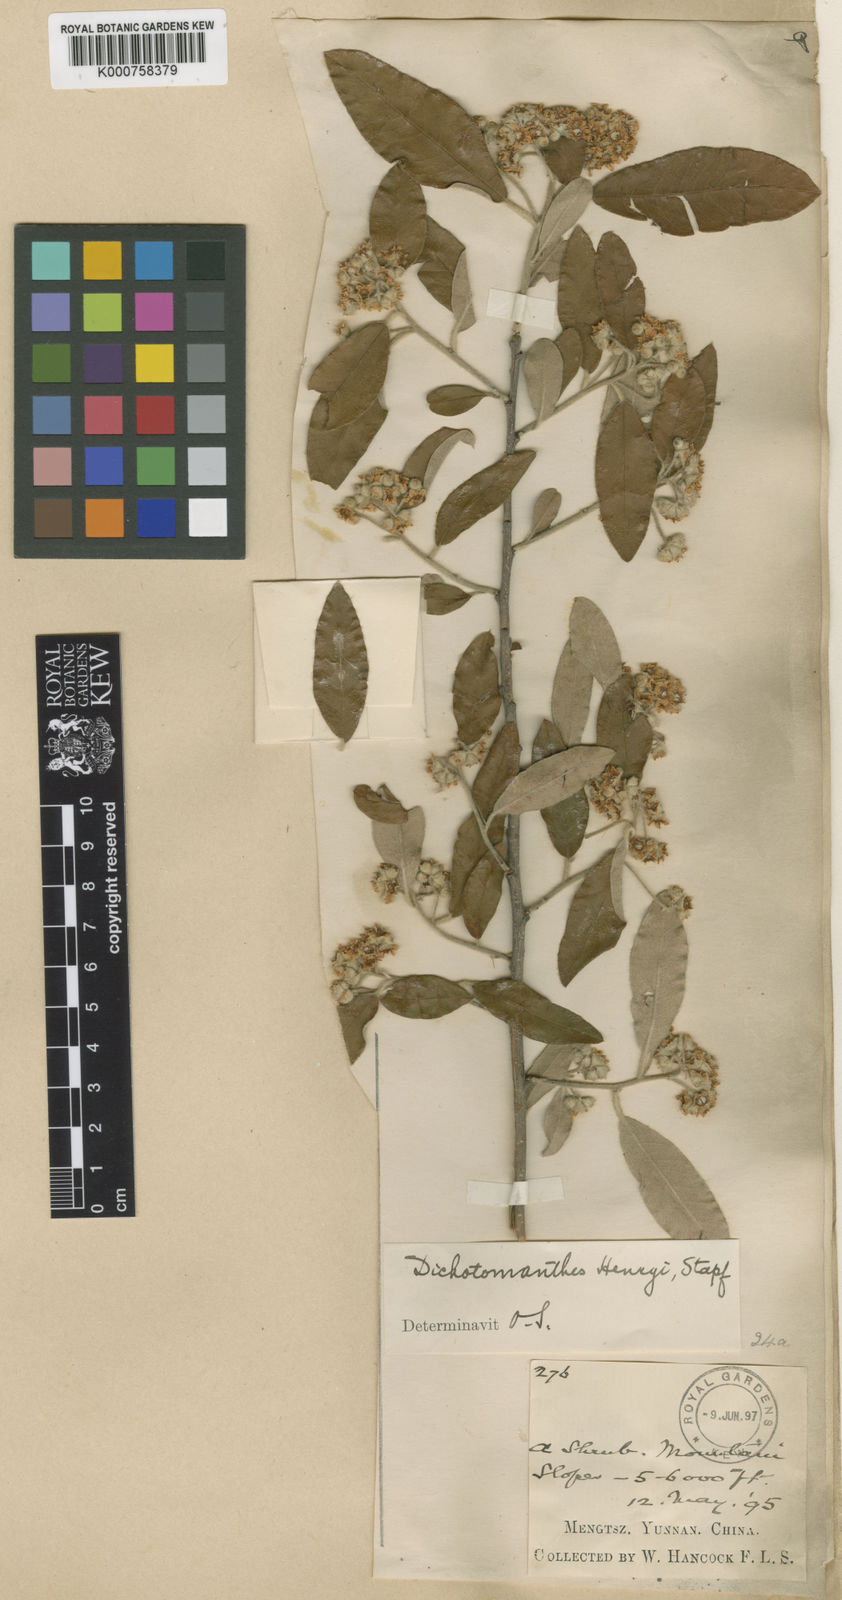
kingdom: Plantae
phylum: Tracheophyta
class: Magnoliopsida
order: Rosales
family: Rosaceae
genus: Dichotomanthes
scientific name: Dichotomanthes
